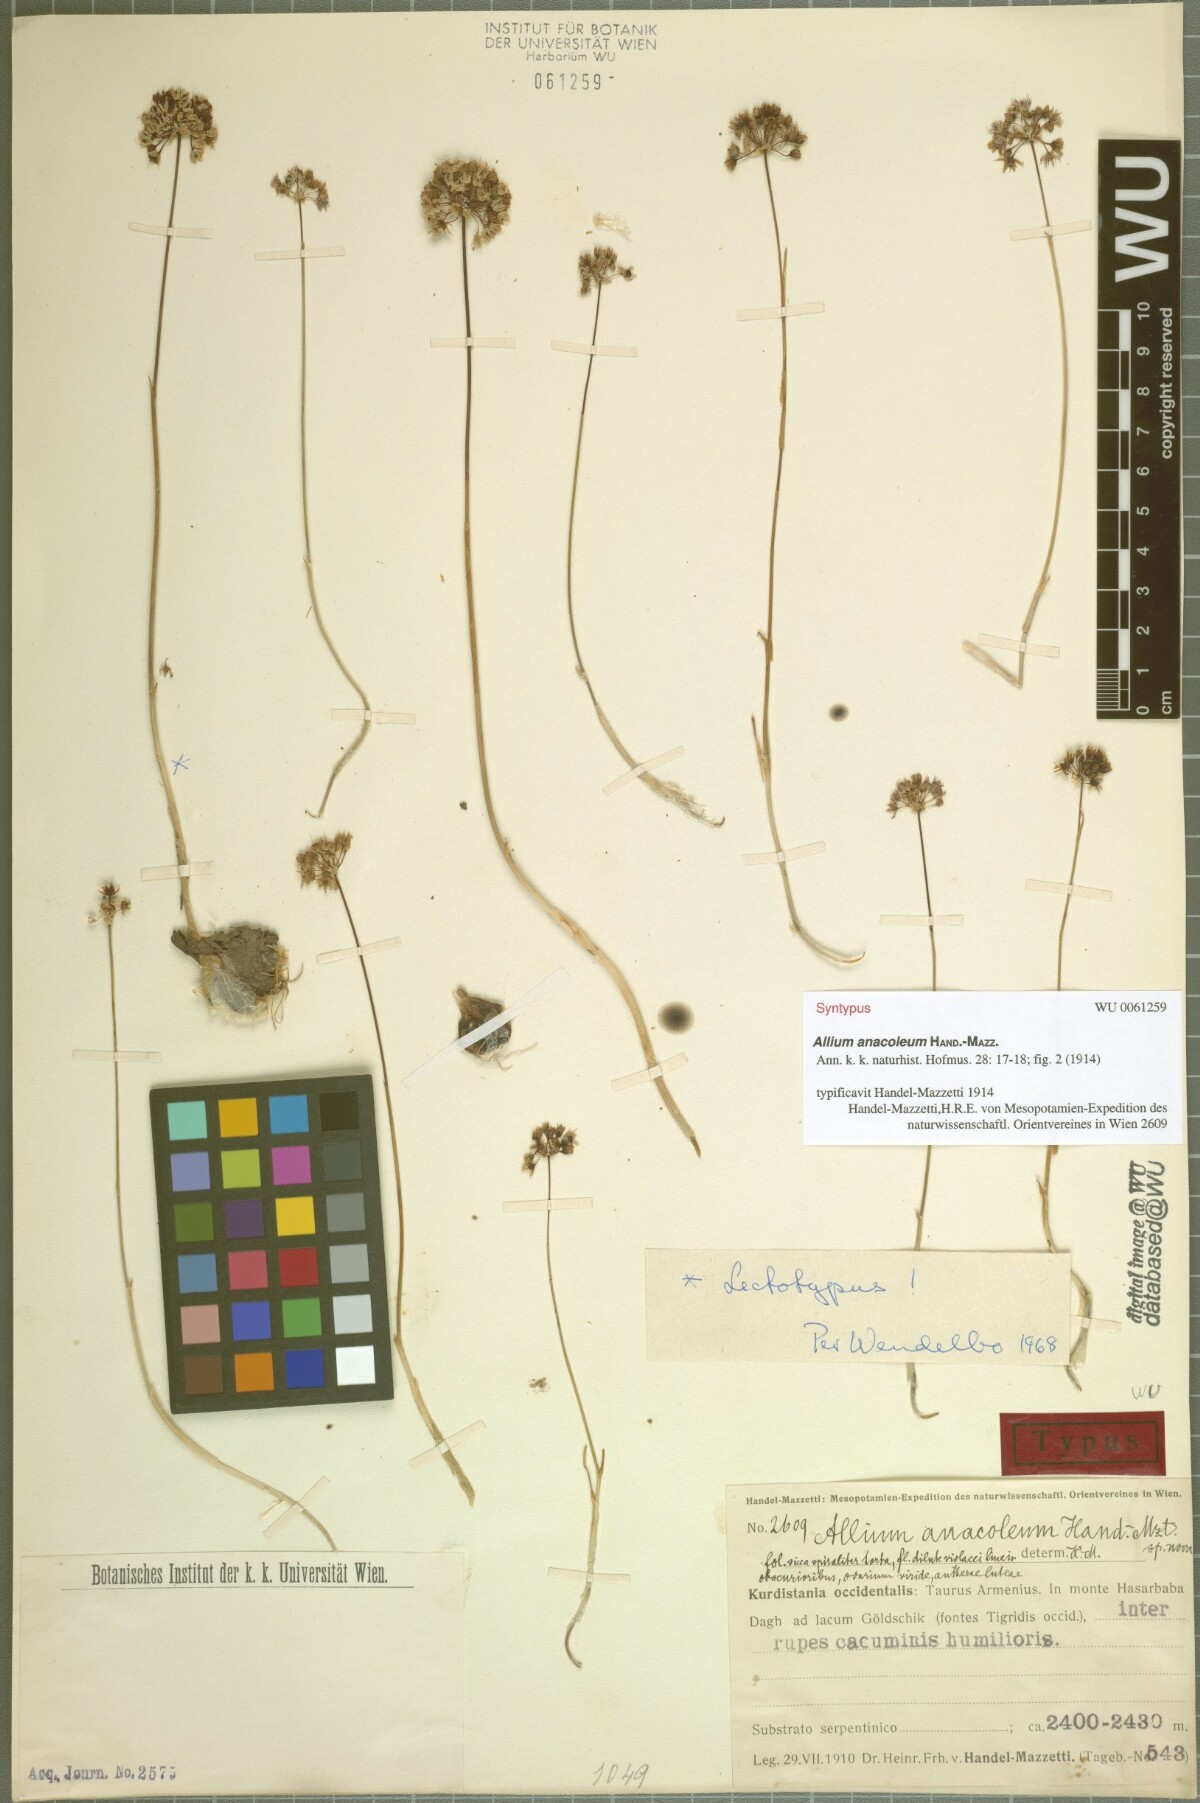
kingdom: Plantae
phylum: Tracheophyta
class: Liliopsida
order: Asparagales
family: Amaryllidaceae
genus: Allium
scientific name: Allium anacoleum
